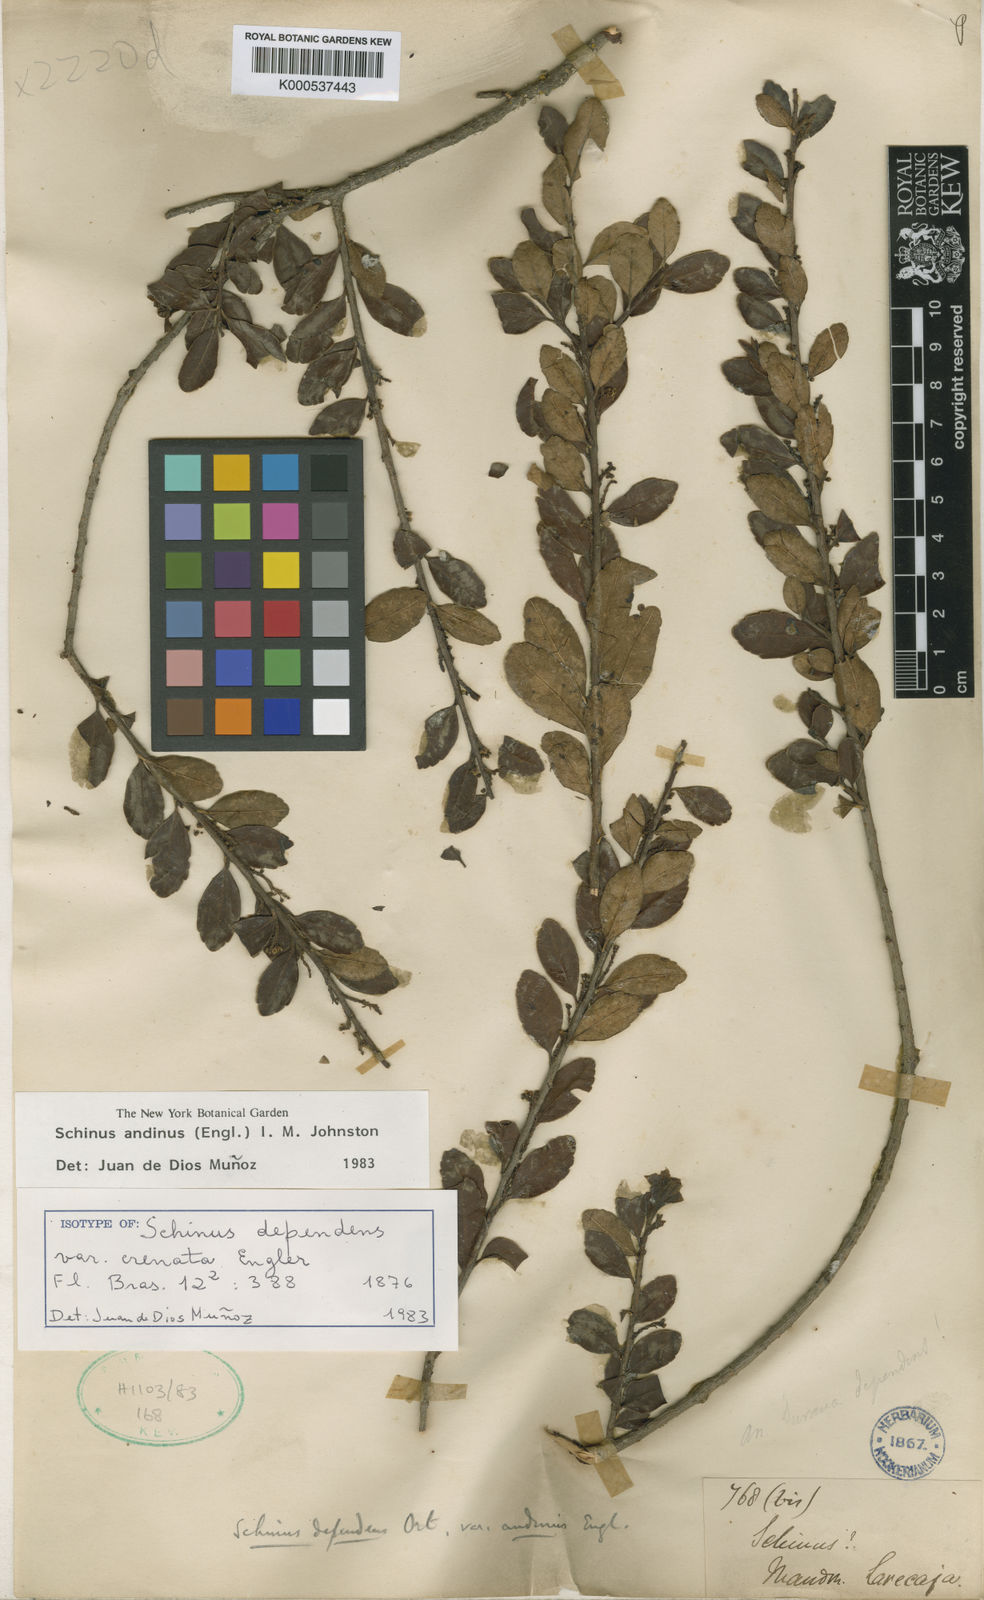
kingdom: Plantae
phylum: Tracheophyta
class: Magnoliopsida
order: Sapindales
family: Anacardiaceae
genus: Schinus
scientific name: Schinus polygama
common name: Hardee peppertree
